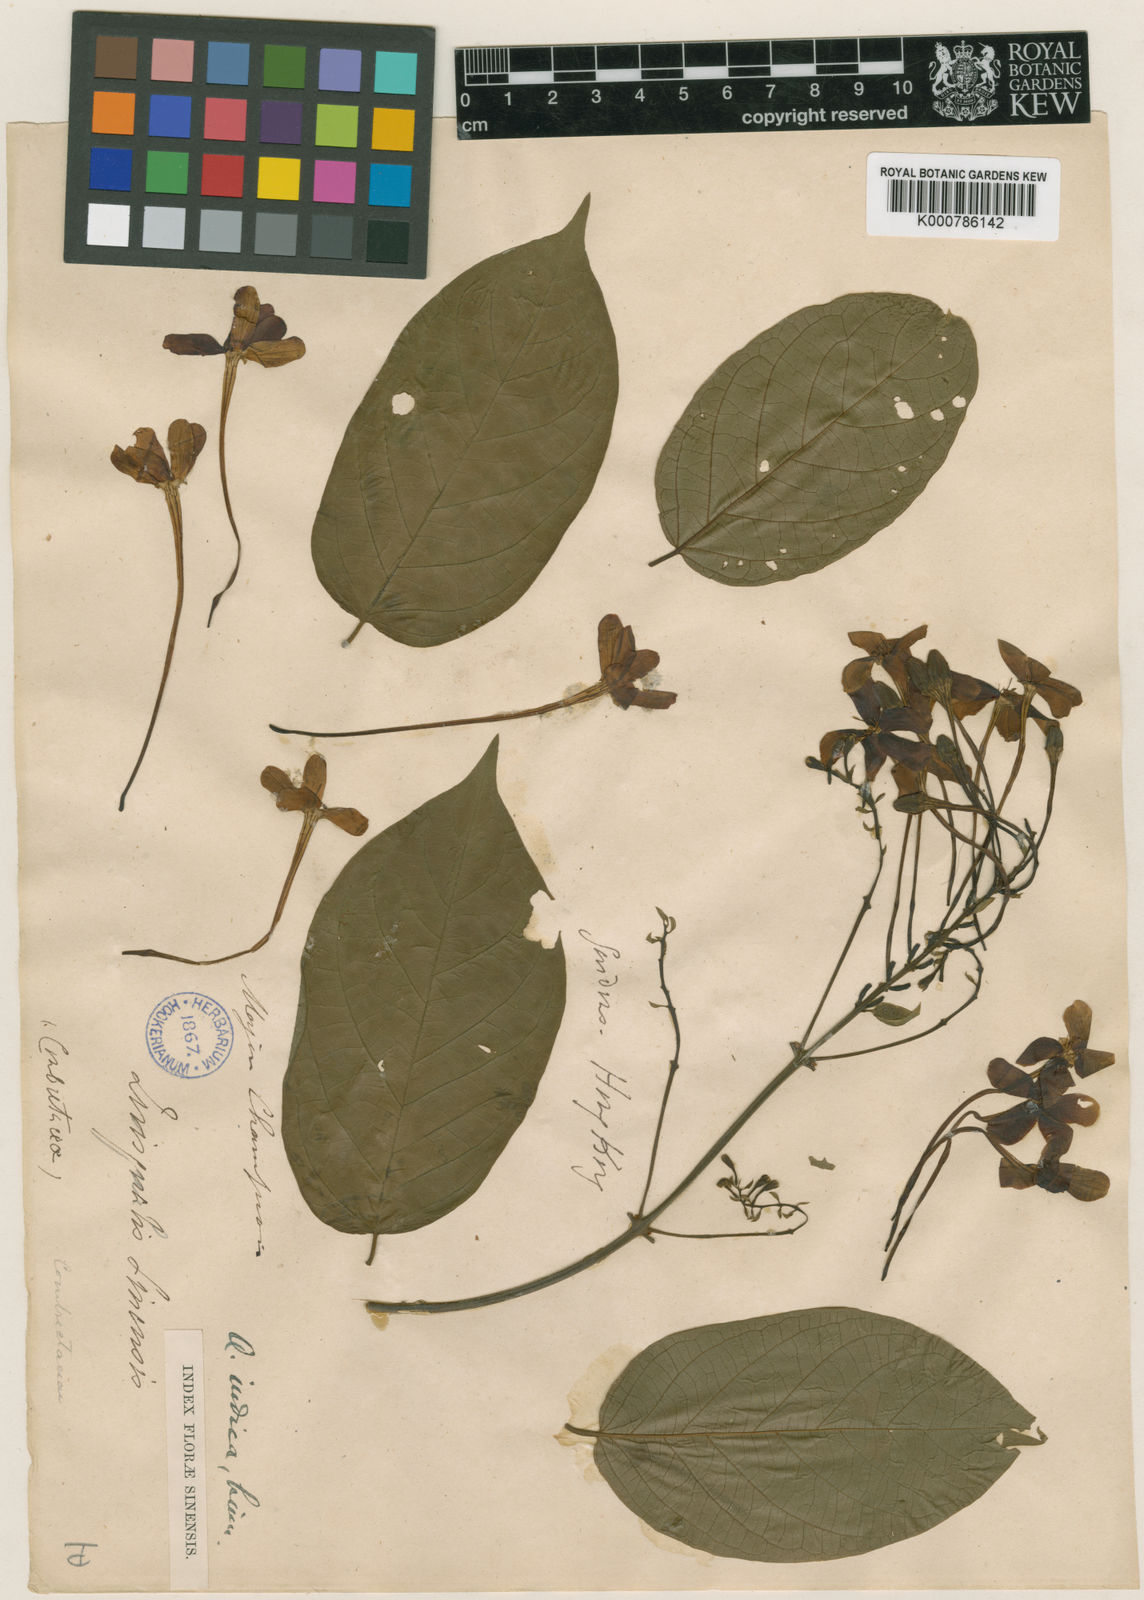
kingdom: Plantae
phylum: Tracheophyta
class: Magnoliopsida
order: Myrtales
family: Combretaceae
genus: Combretum
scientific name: Combretum indicum
